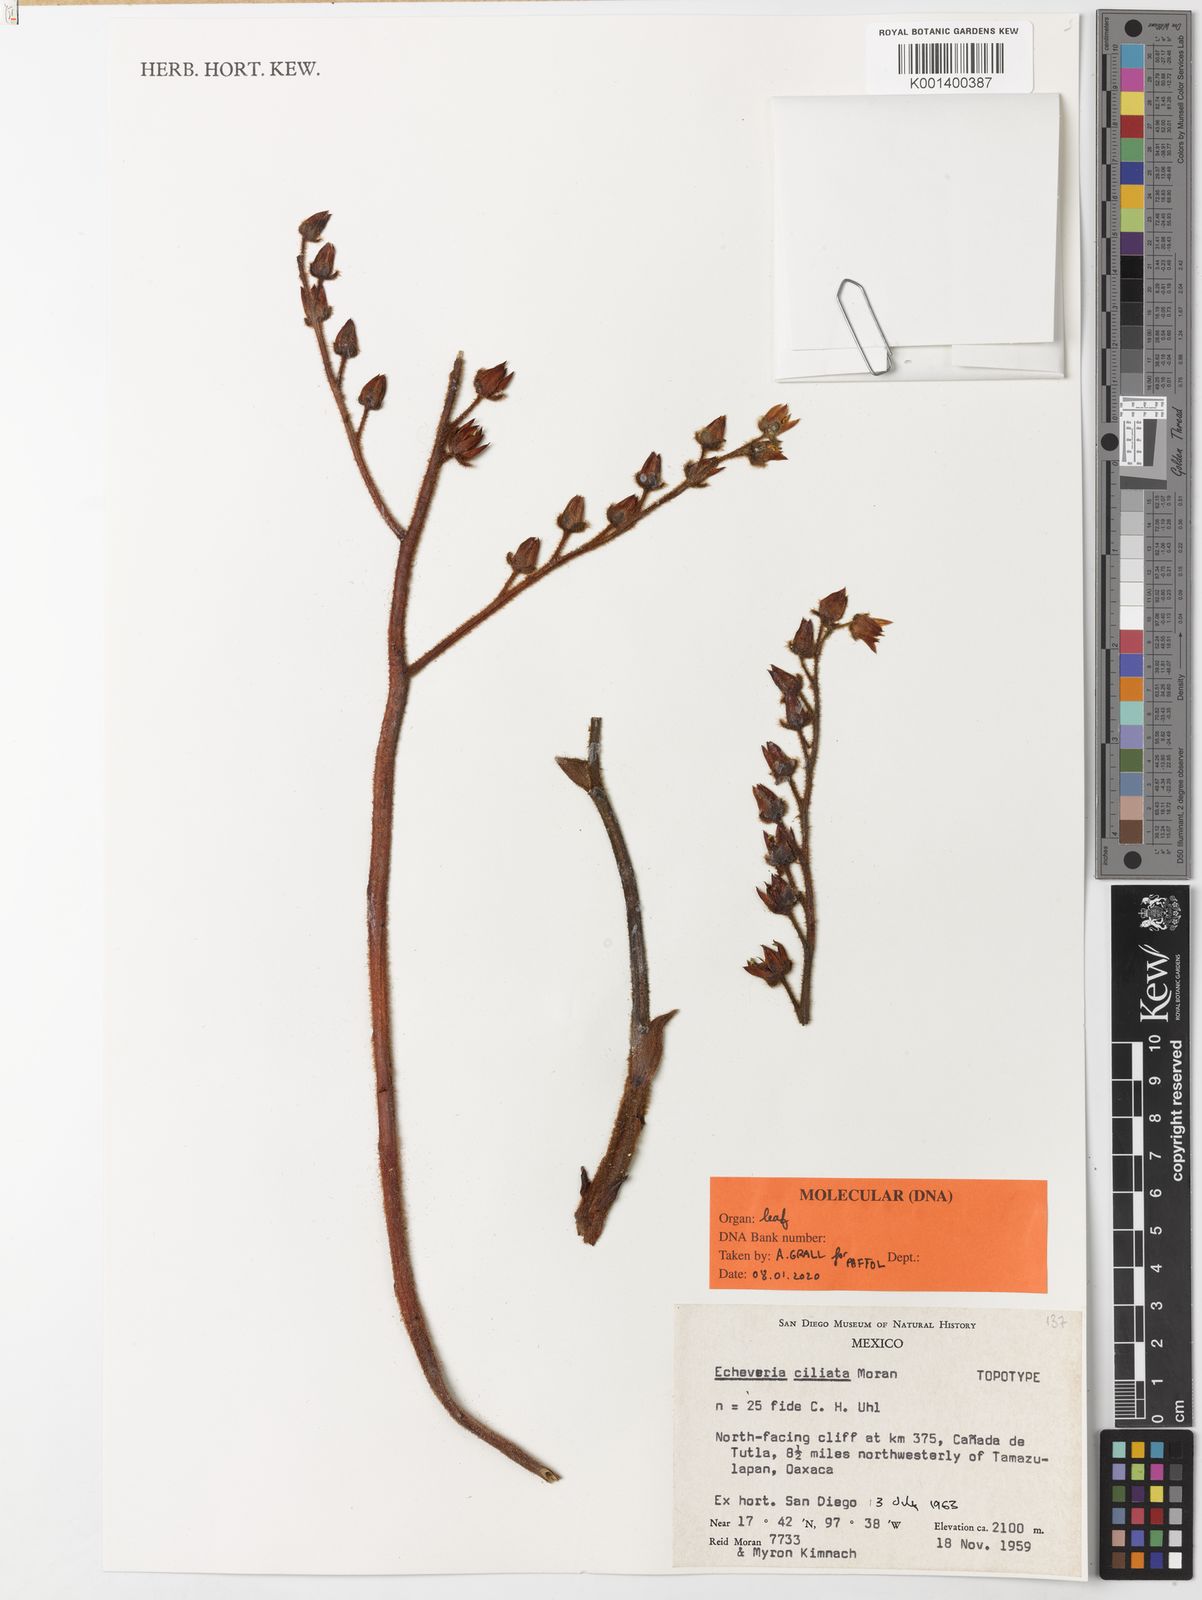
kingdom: Plantae
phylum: Tracheophyta
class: Magnoliopsida
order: Saxifragales
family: Crassulaceae
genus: Echeveria
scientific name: Echeveria setosa
